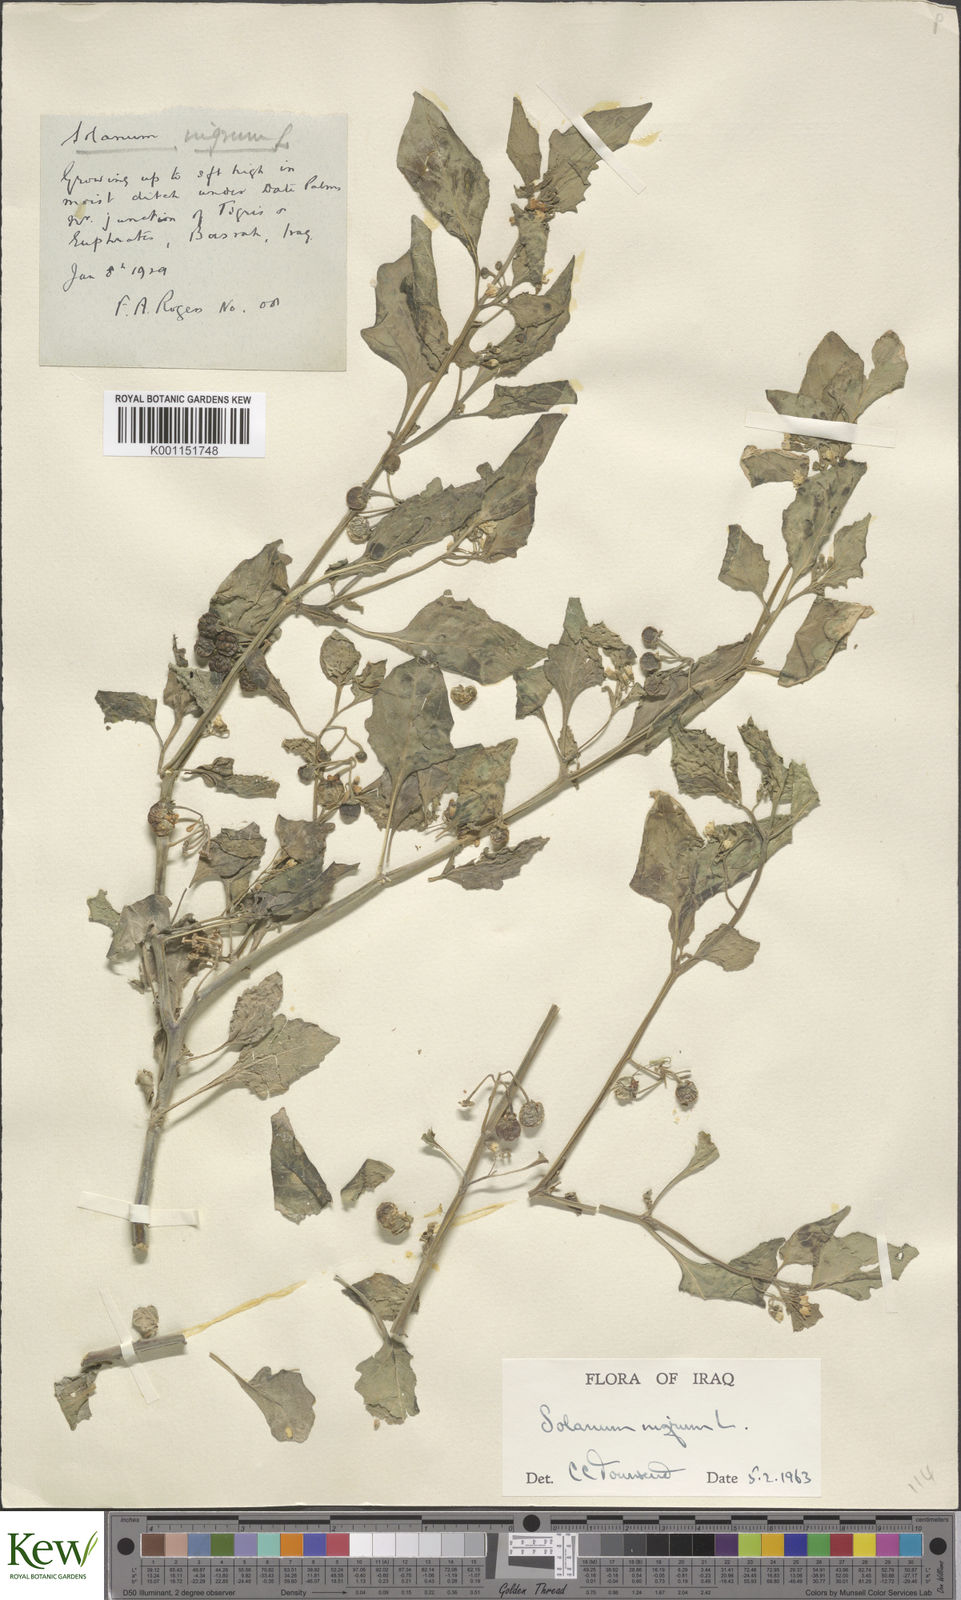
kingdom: Plantae
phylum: Tracheophyta
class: Magnoliopsida
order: Solanales
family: Solanaceae
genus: Solanum
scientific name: Solanum nigrum
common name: Black nightshade
